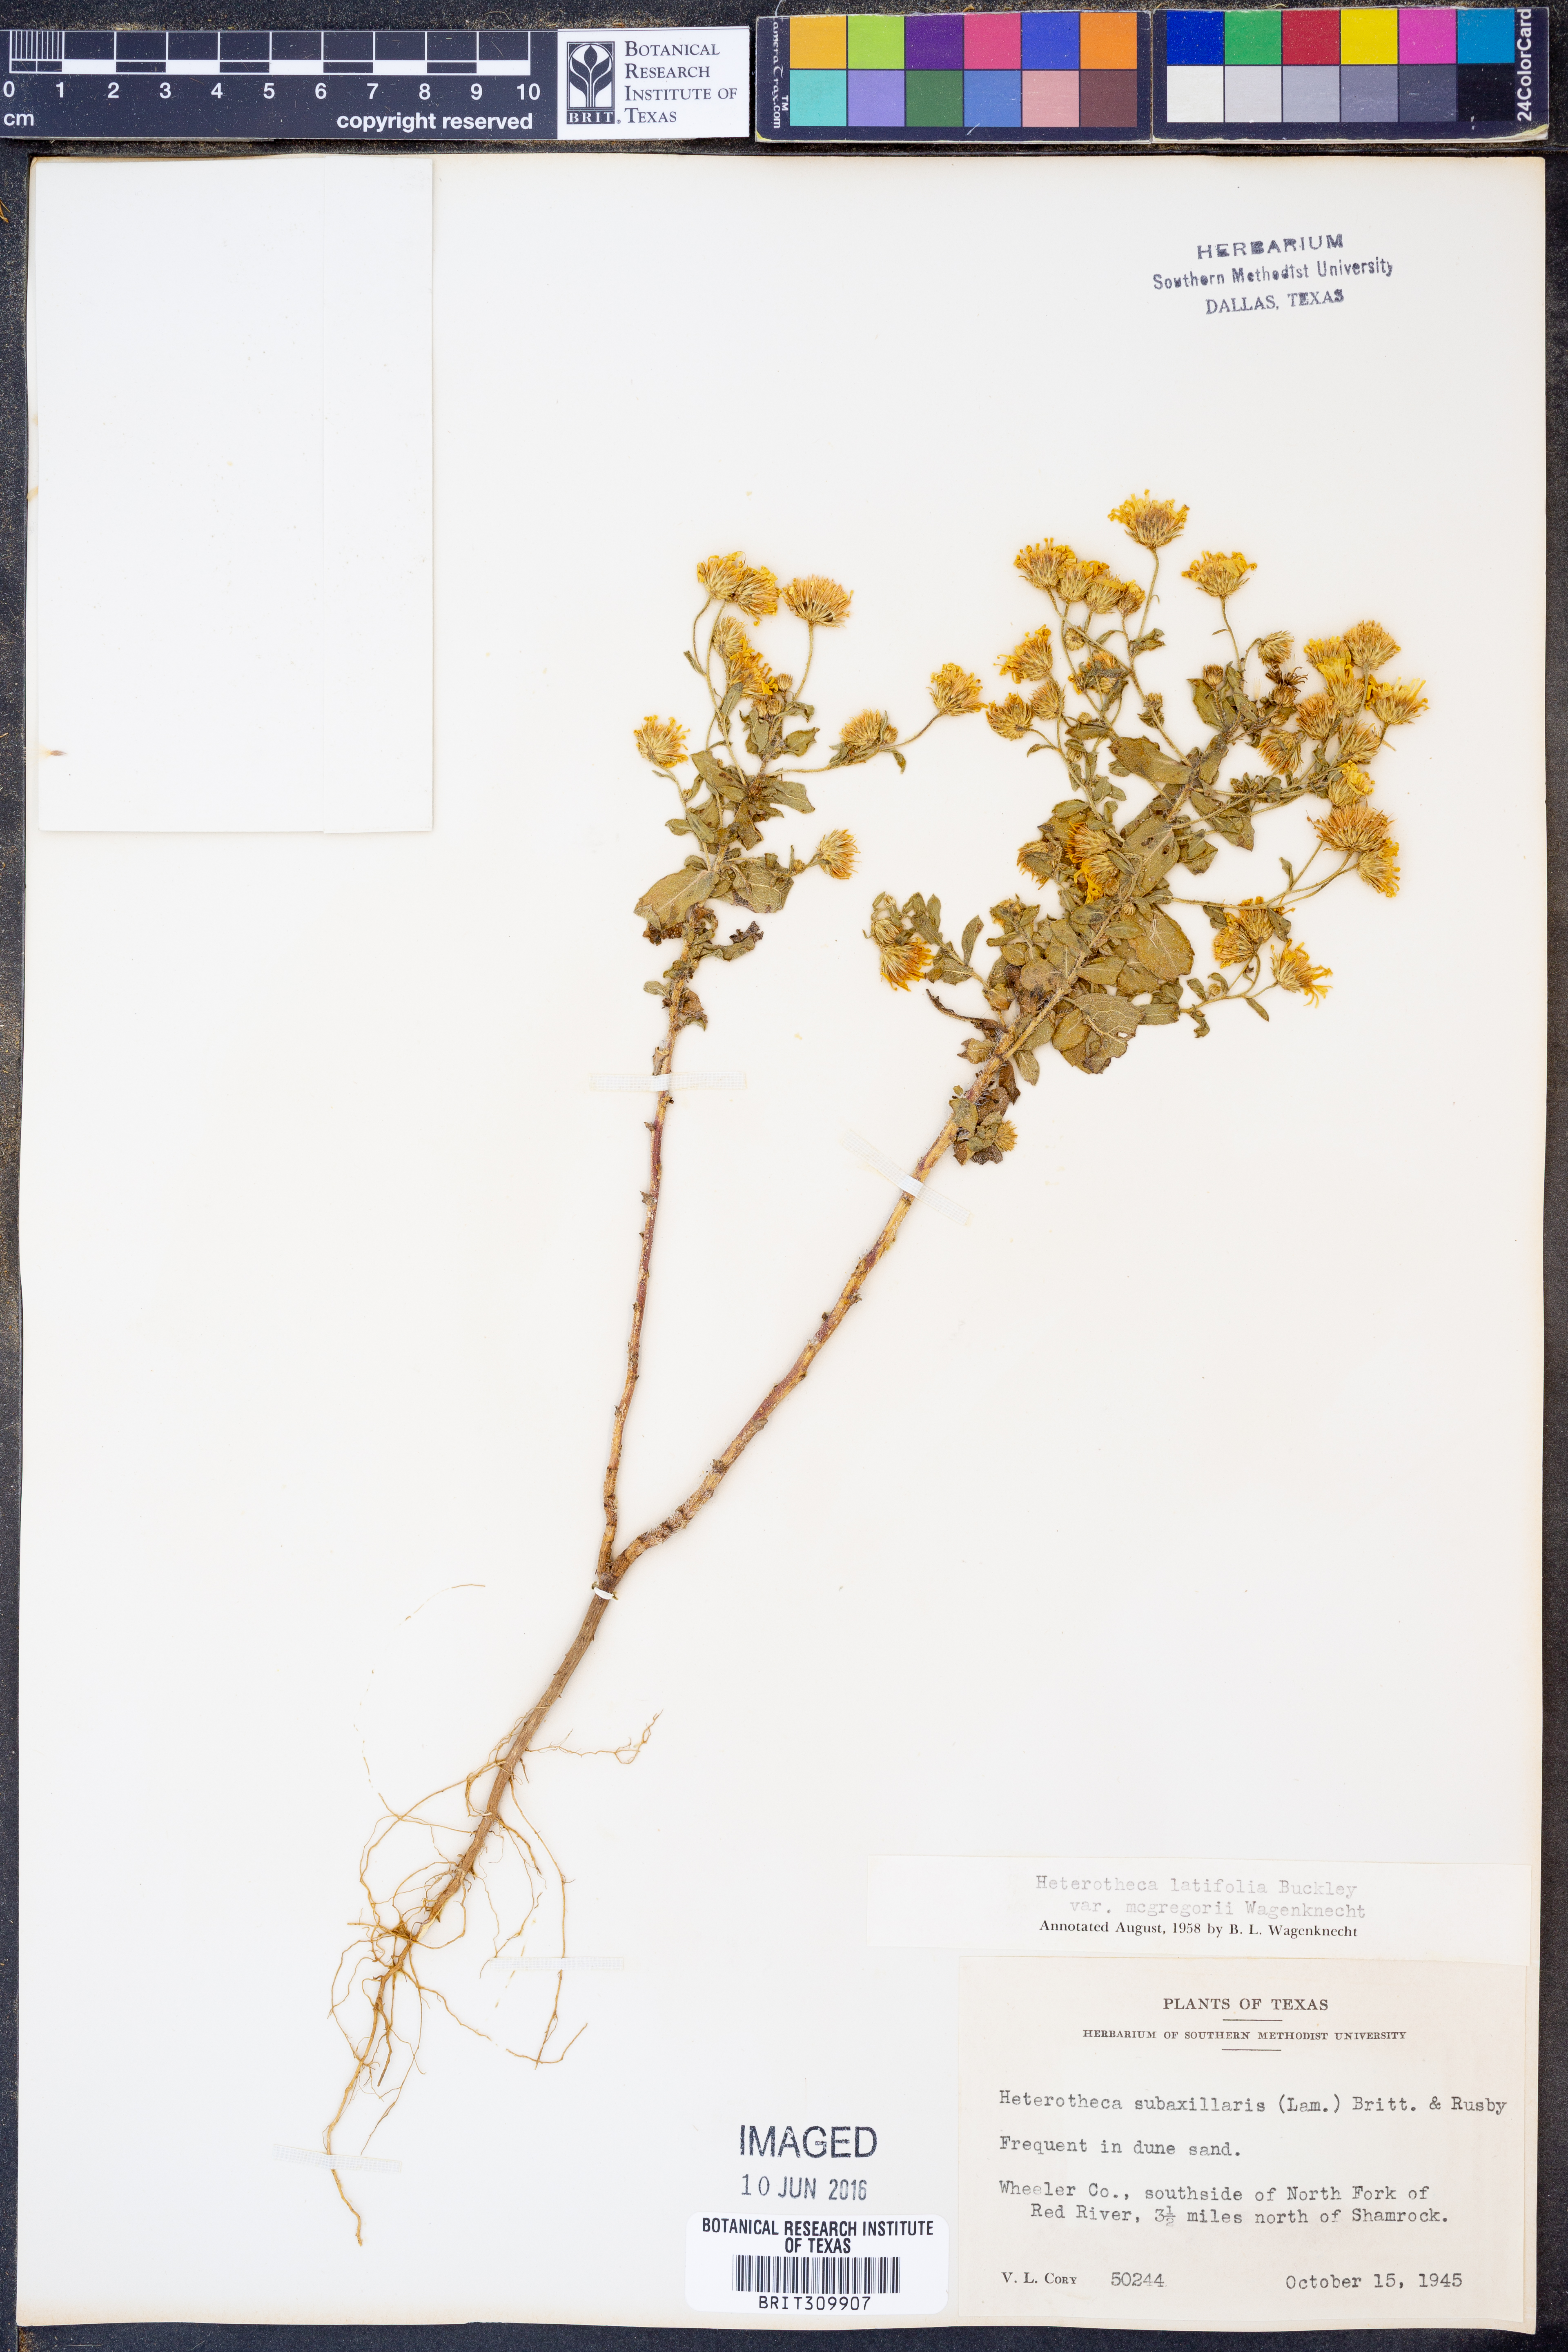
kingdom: Plantae
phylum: Tracheophyta
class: Magnoliopsida
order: Asterales
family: Asteraceae
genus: Heterotheca
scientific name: Heterotheca subaxillaris
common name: Camphorweed
